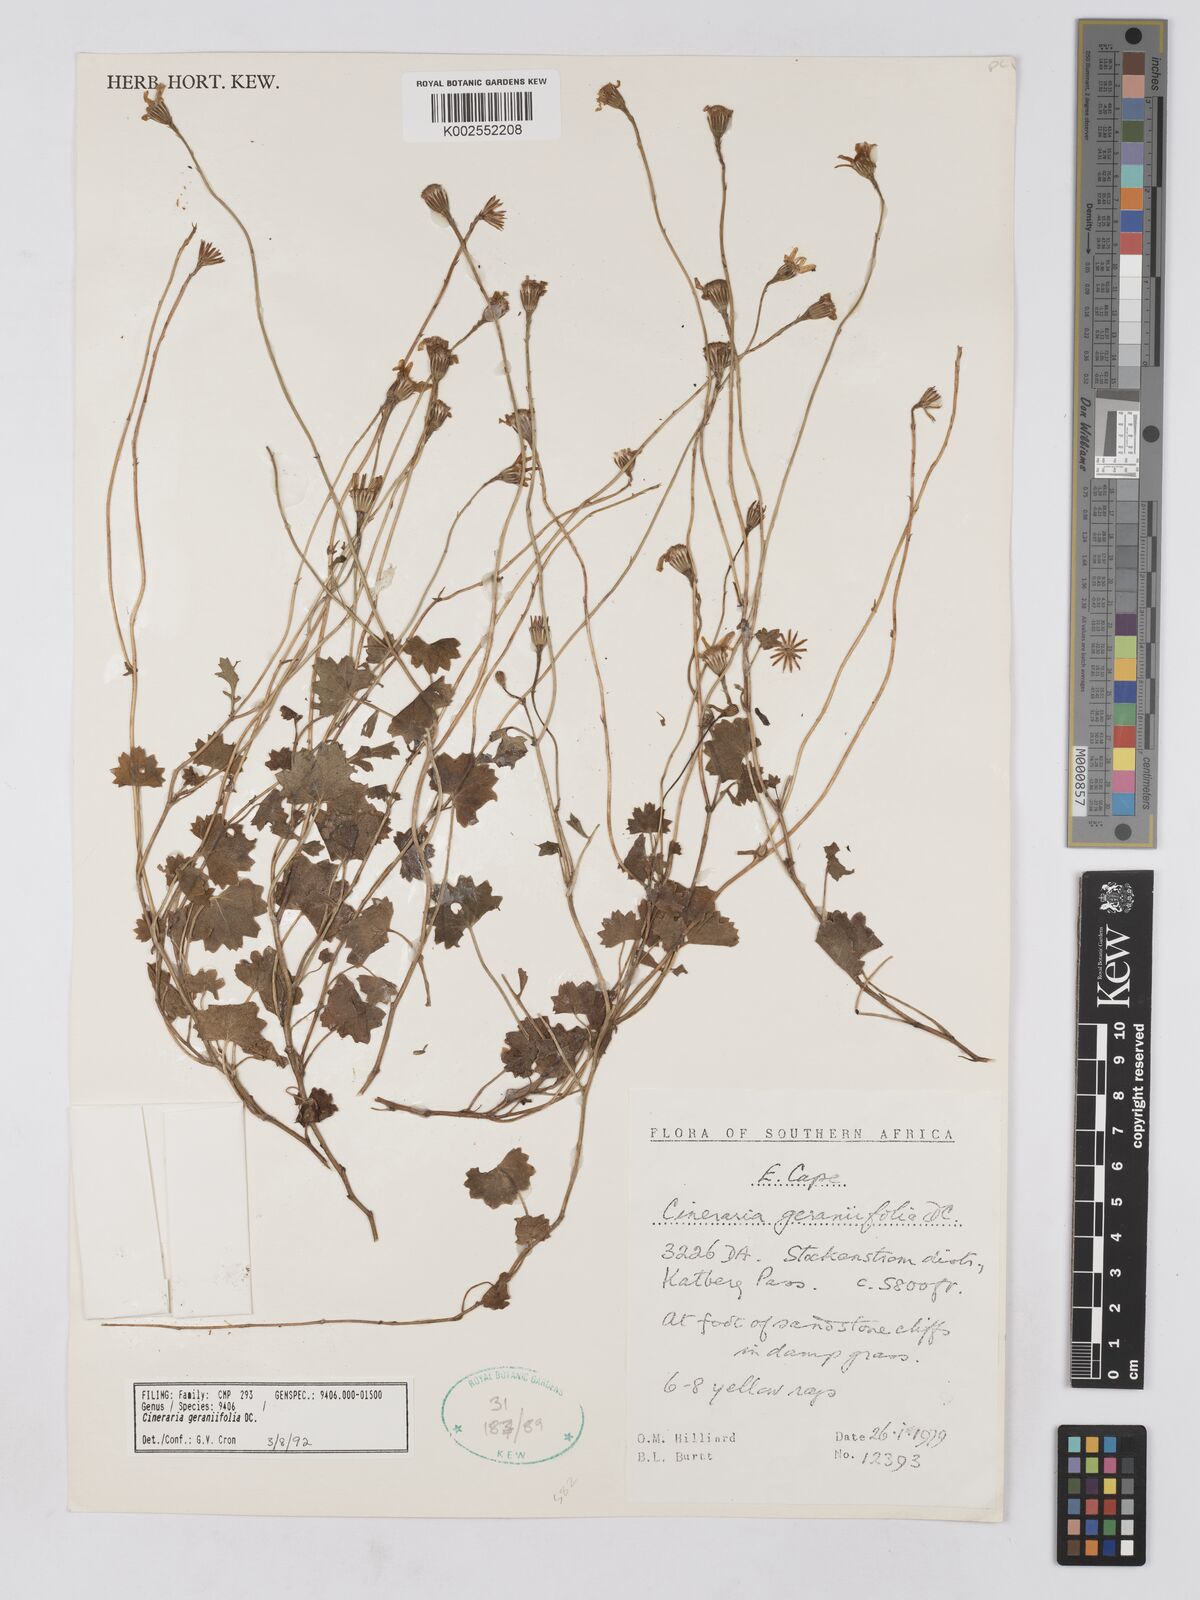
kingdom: Plantae
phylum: Tracheophyta
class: Magnoliopsida
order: Asterales
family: Asteraceae
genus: Cineraria
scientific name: Cineraria geraniifolia
